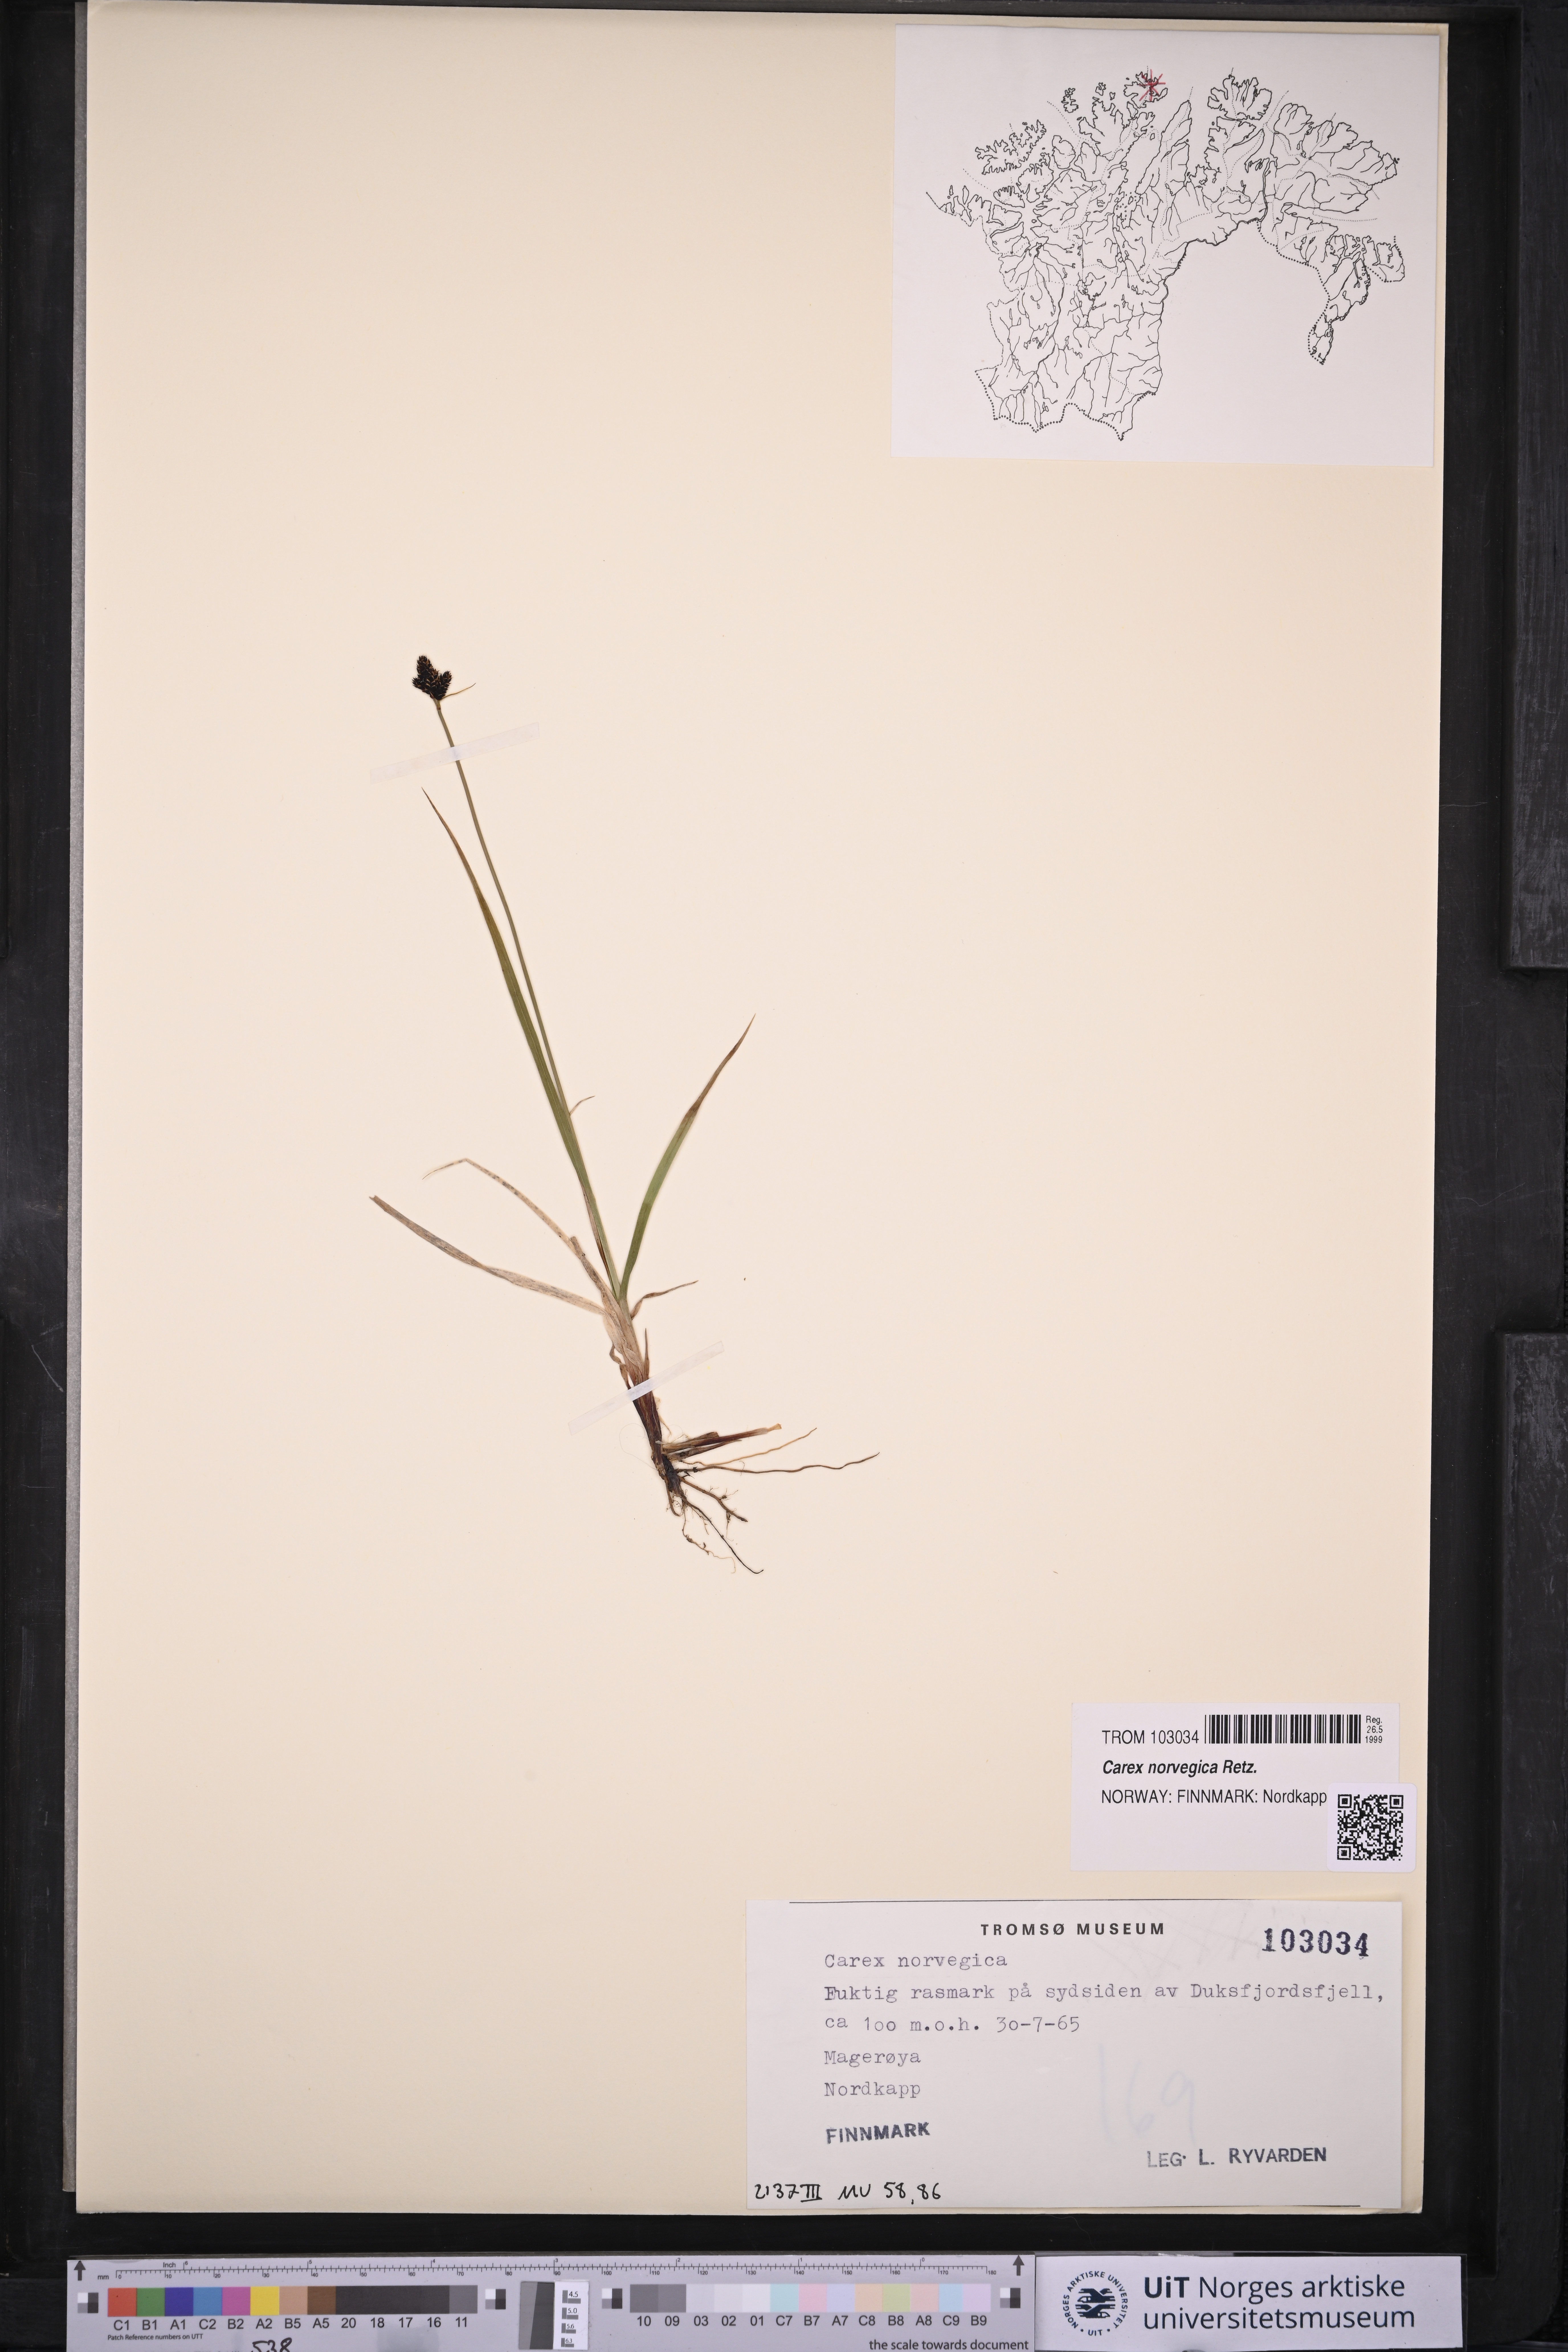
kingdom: Plantae
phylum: Tracheophyta
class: Liliopsida
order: Poales
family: Cyperaceae
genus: Carex
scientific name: Carex norvegica
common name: Close-headed alpine-sedge
